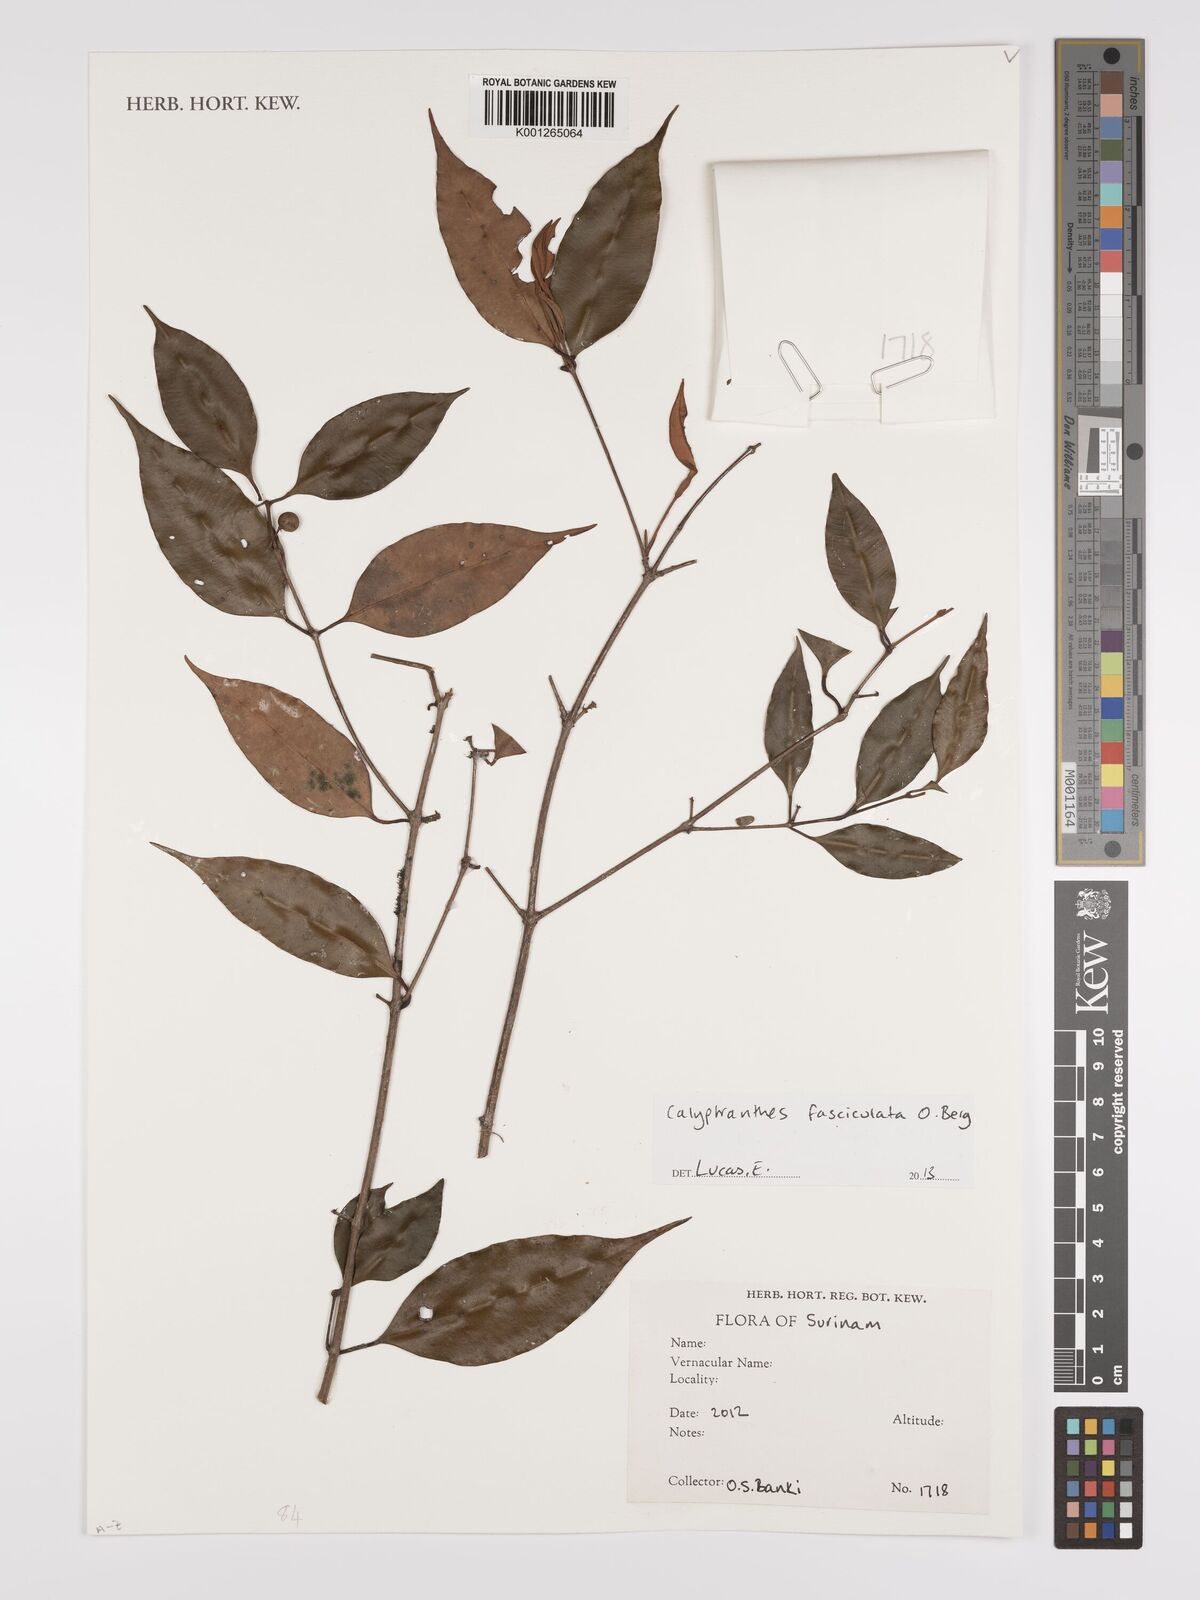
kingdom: Plantae
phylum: Tracheophyta
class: Magnoliopsida
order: Myrtales
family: Myrtaceae
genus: Myrcia
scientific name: Myrcia fasciculata
